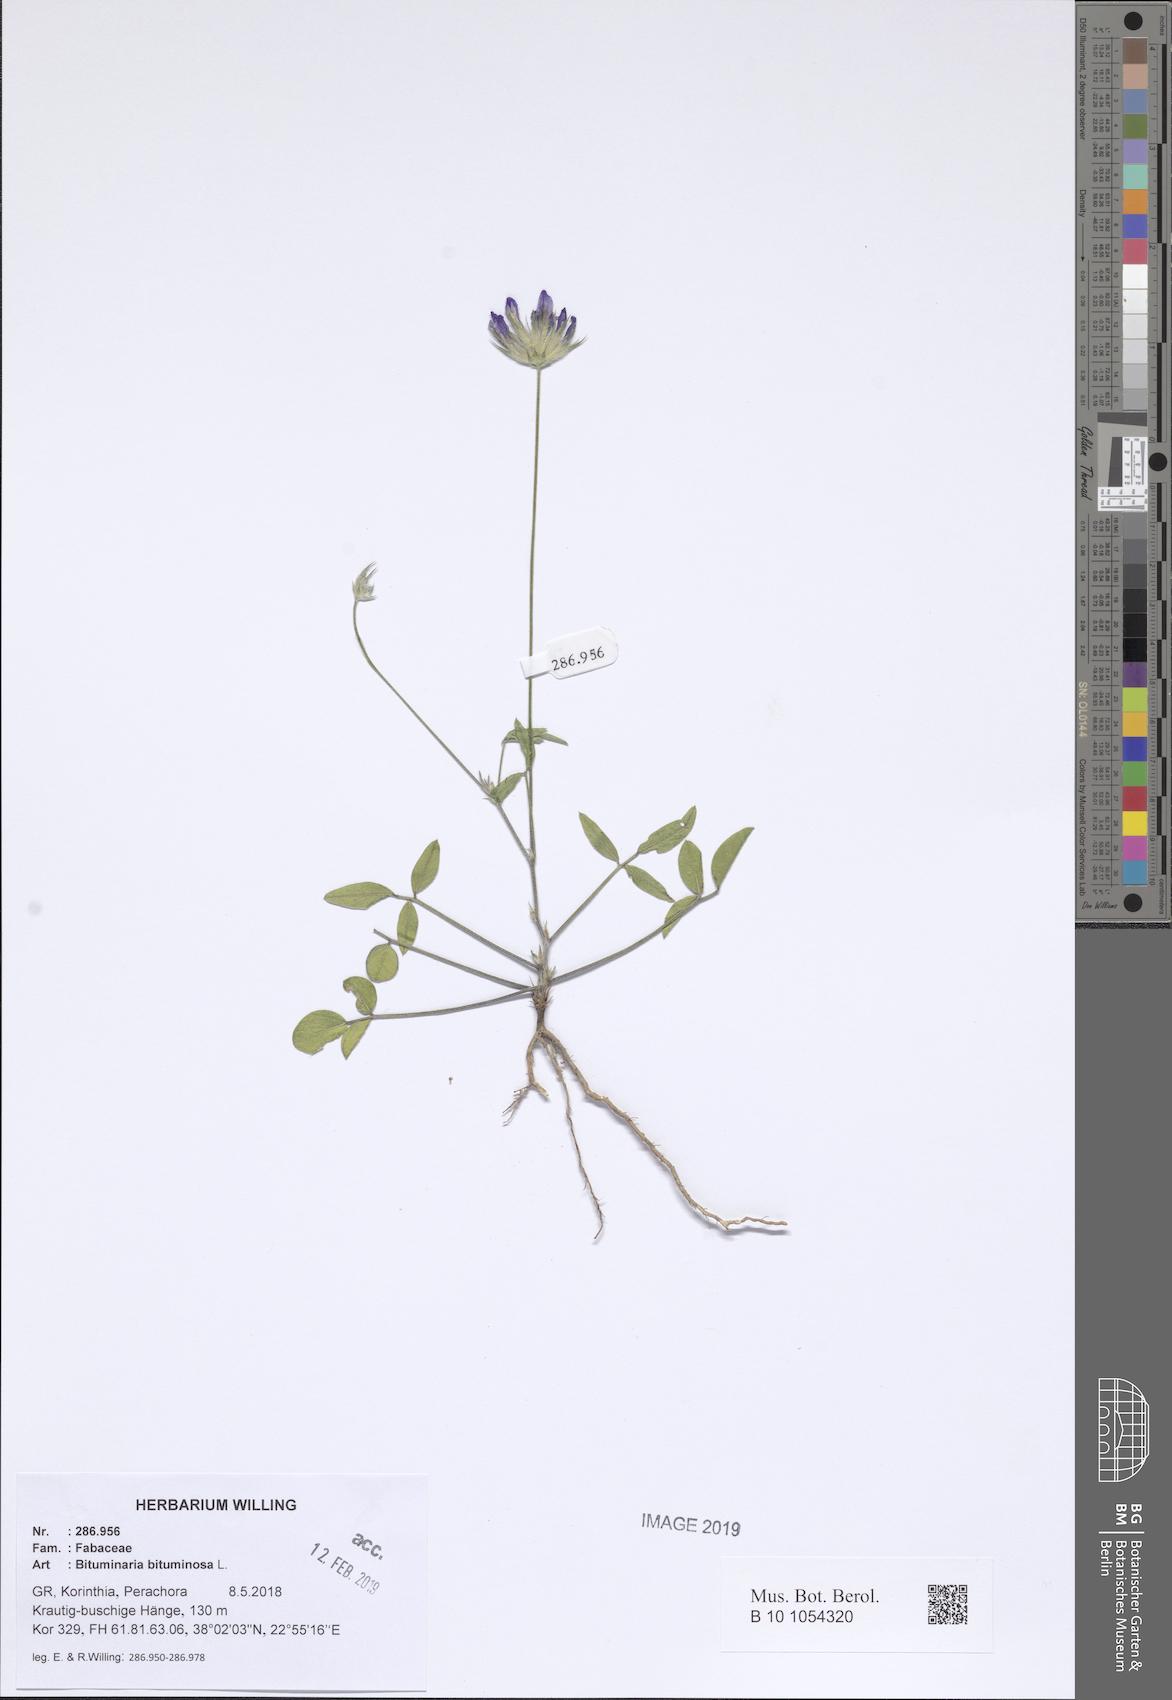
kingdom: Plantae
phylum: Tracheophyta
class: Magnoliopsida
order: Fabales
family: Fabaceae
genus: Bituminaria
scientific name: Bituminaria bituminosa
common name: Arabian pea
